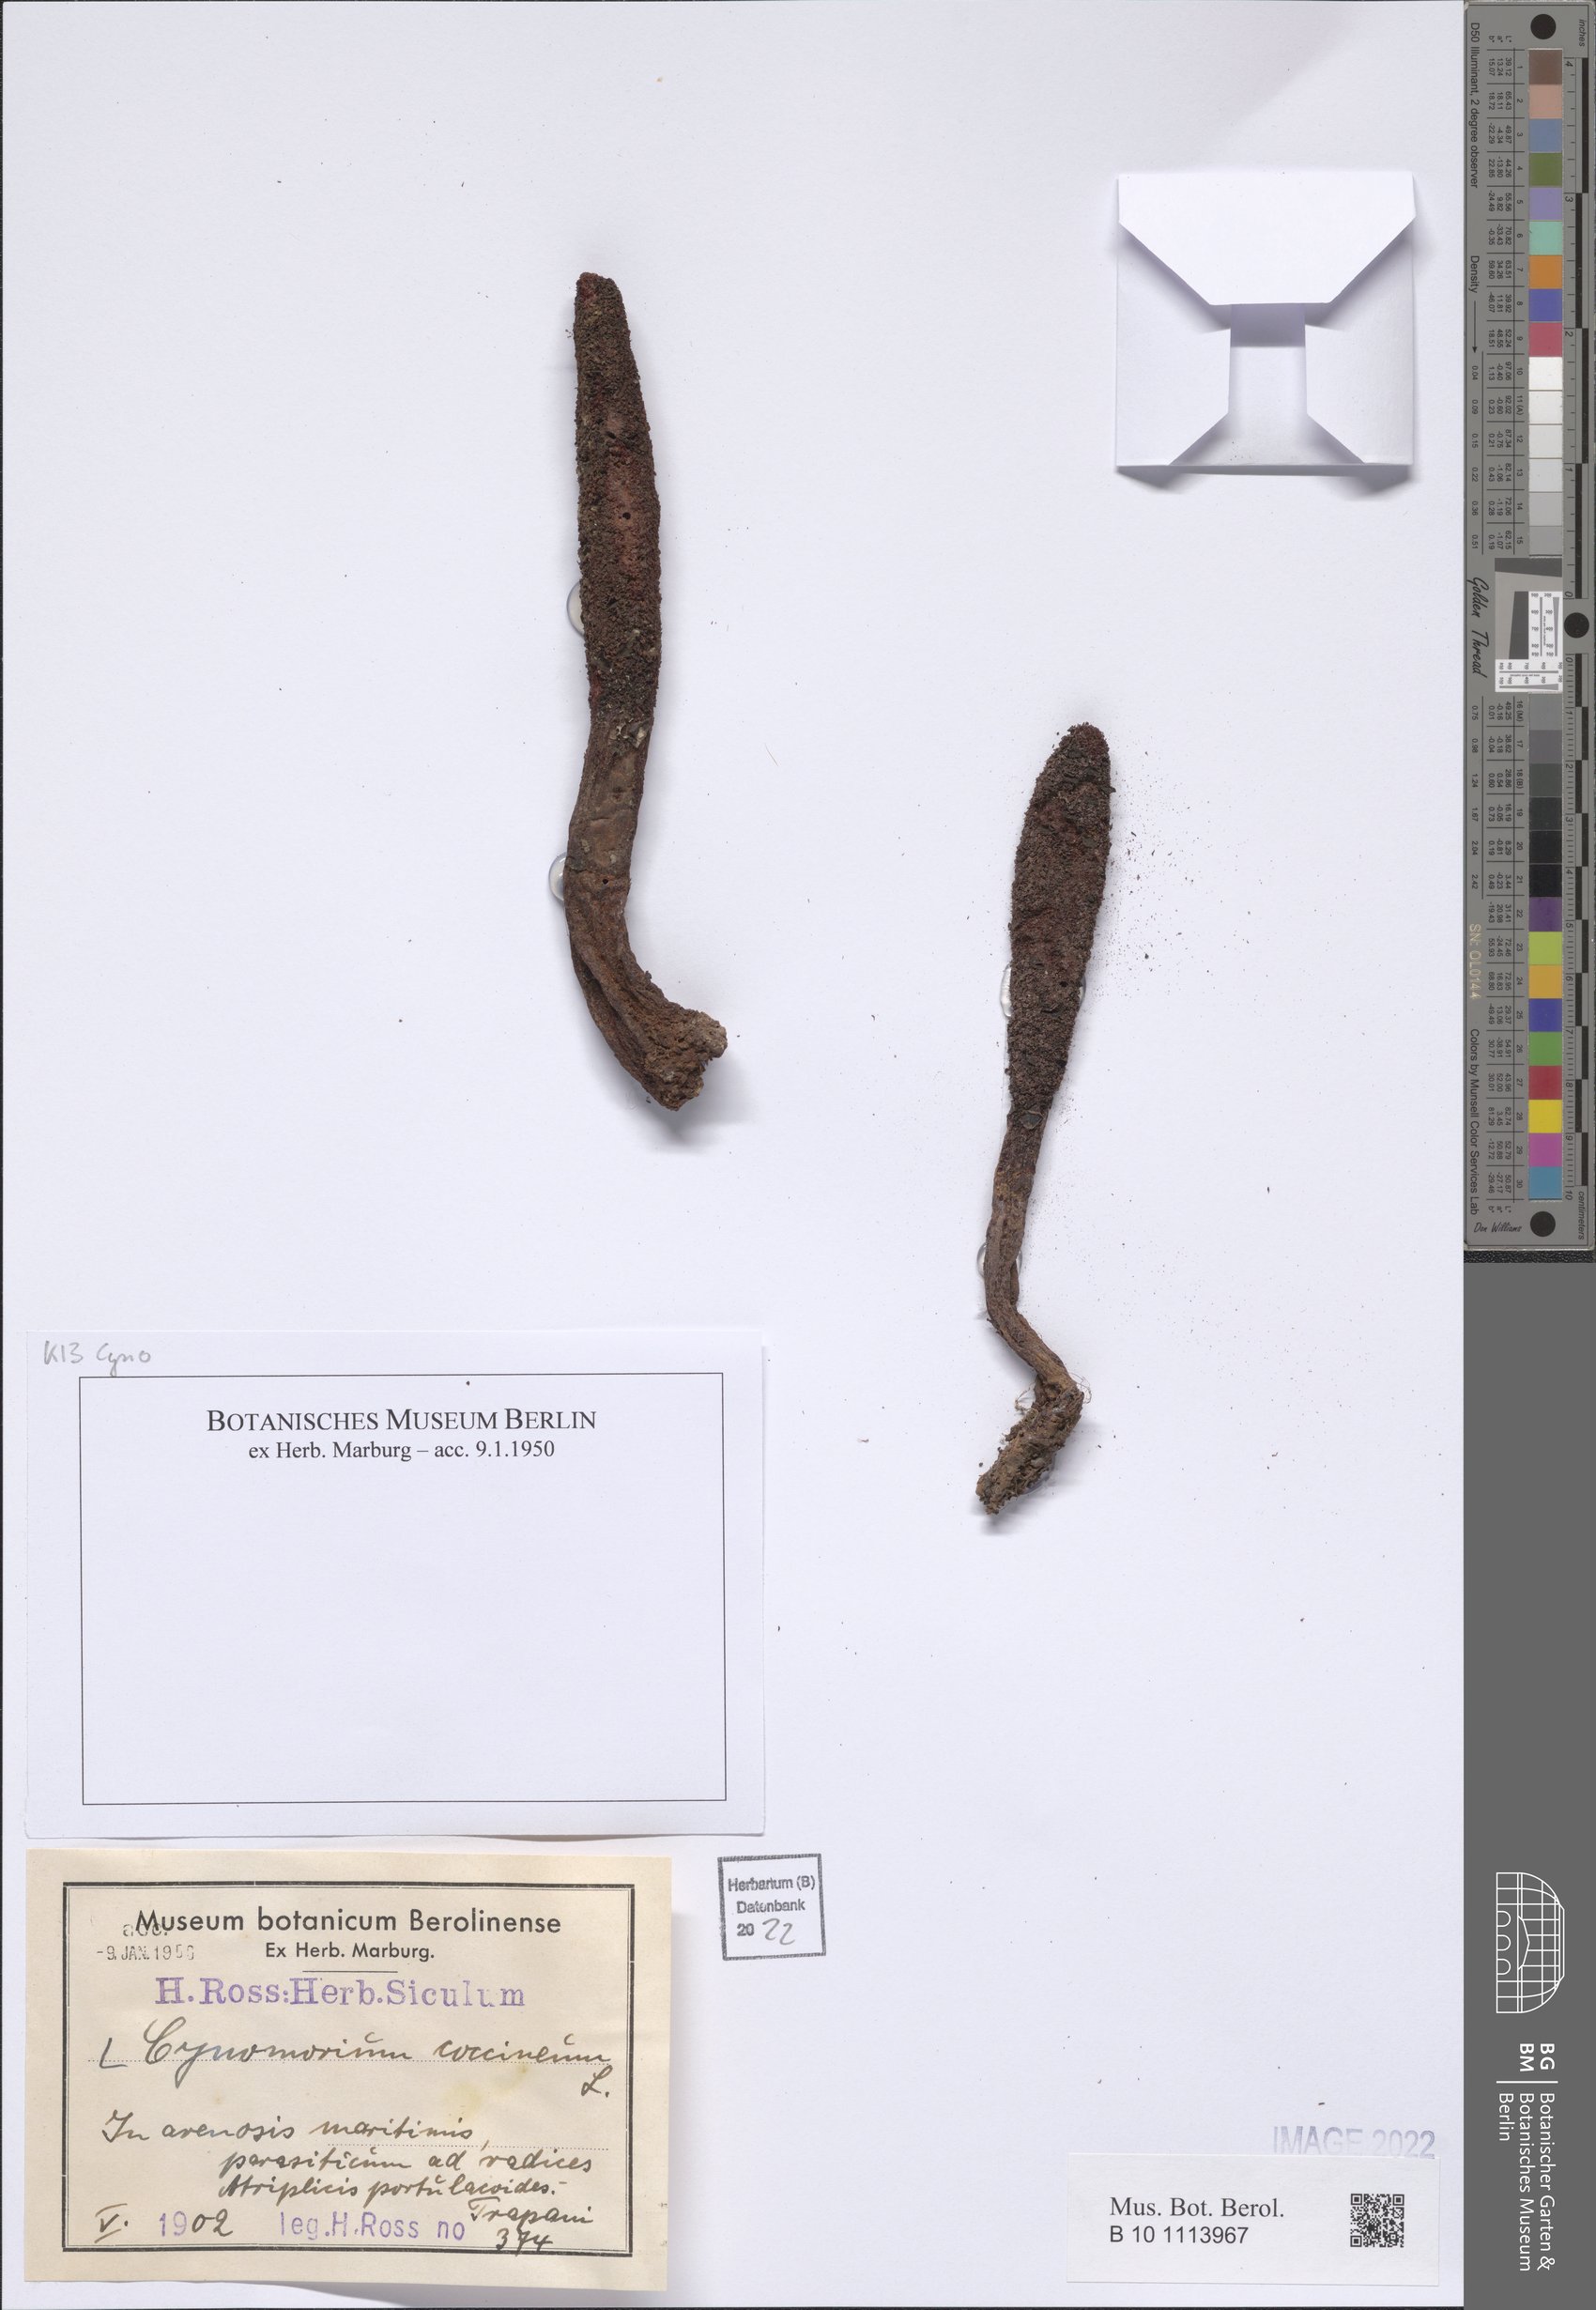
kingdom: Plantae
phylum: Tracheophyta
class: Magnoliopsida
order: Saxifragales
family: Cynomoriaceae
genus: Cynomorium
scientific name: Cynomorium coccineum
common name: Maltese-mushroom
